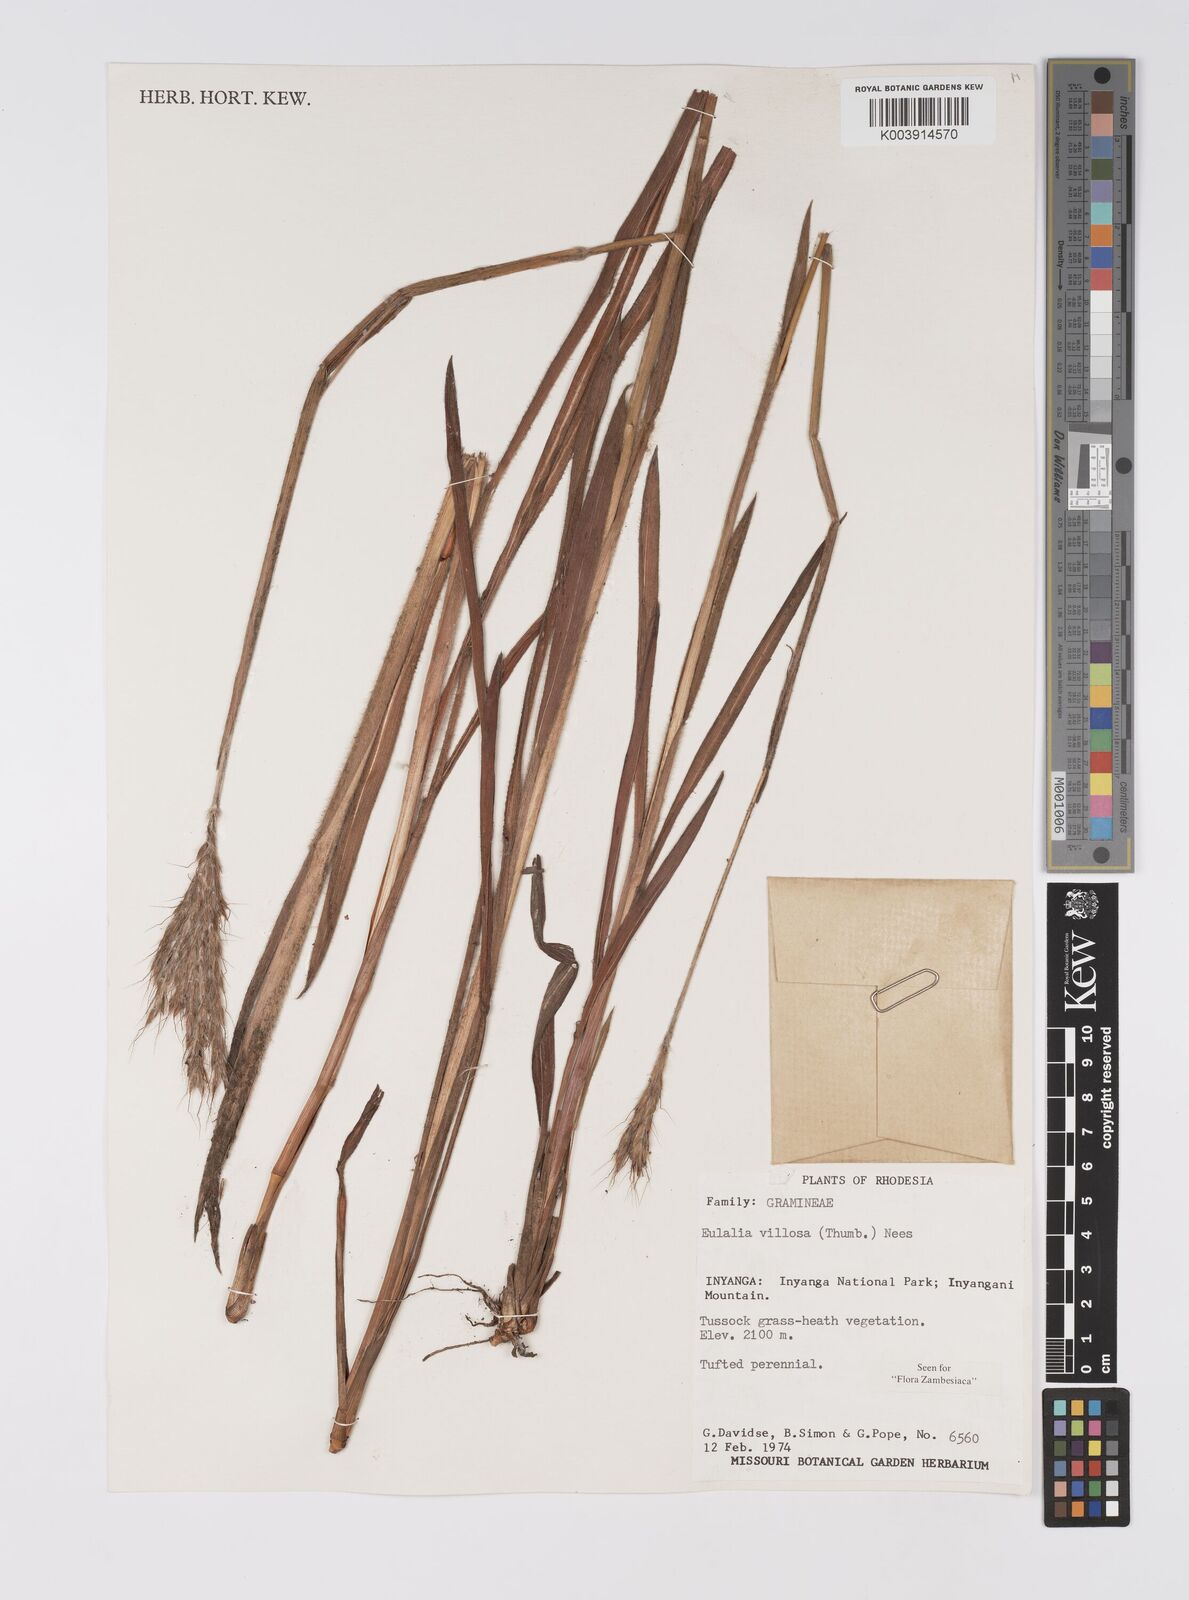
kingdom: Plantae
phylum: Tracheophyta
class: Liliopsida
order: Poales
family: Poaceae
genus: Eulalia
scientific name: Eulalia villosa
